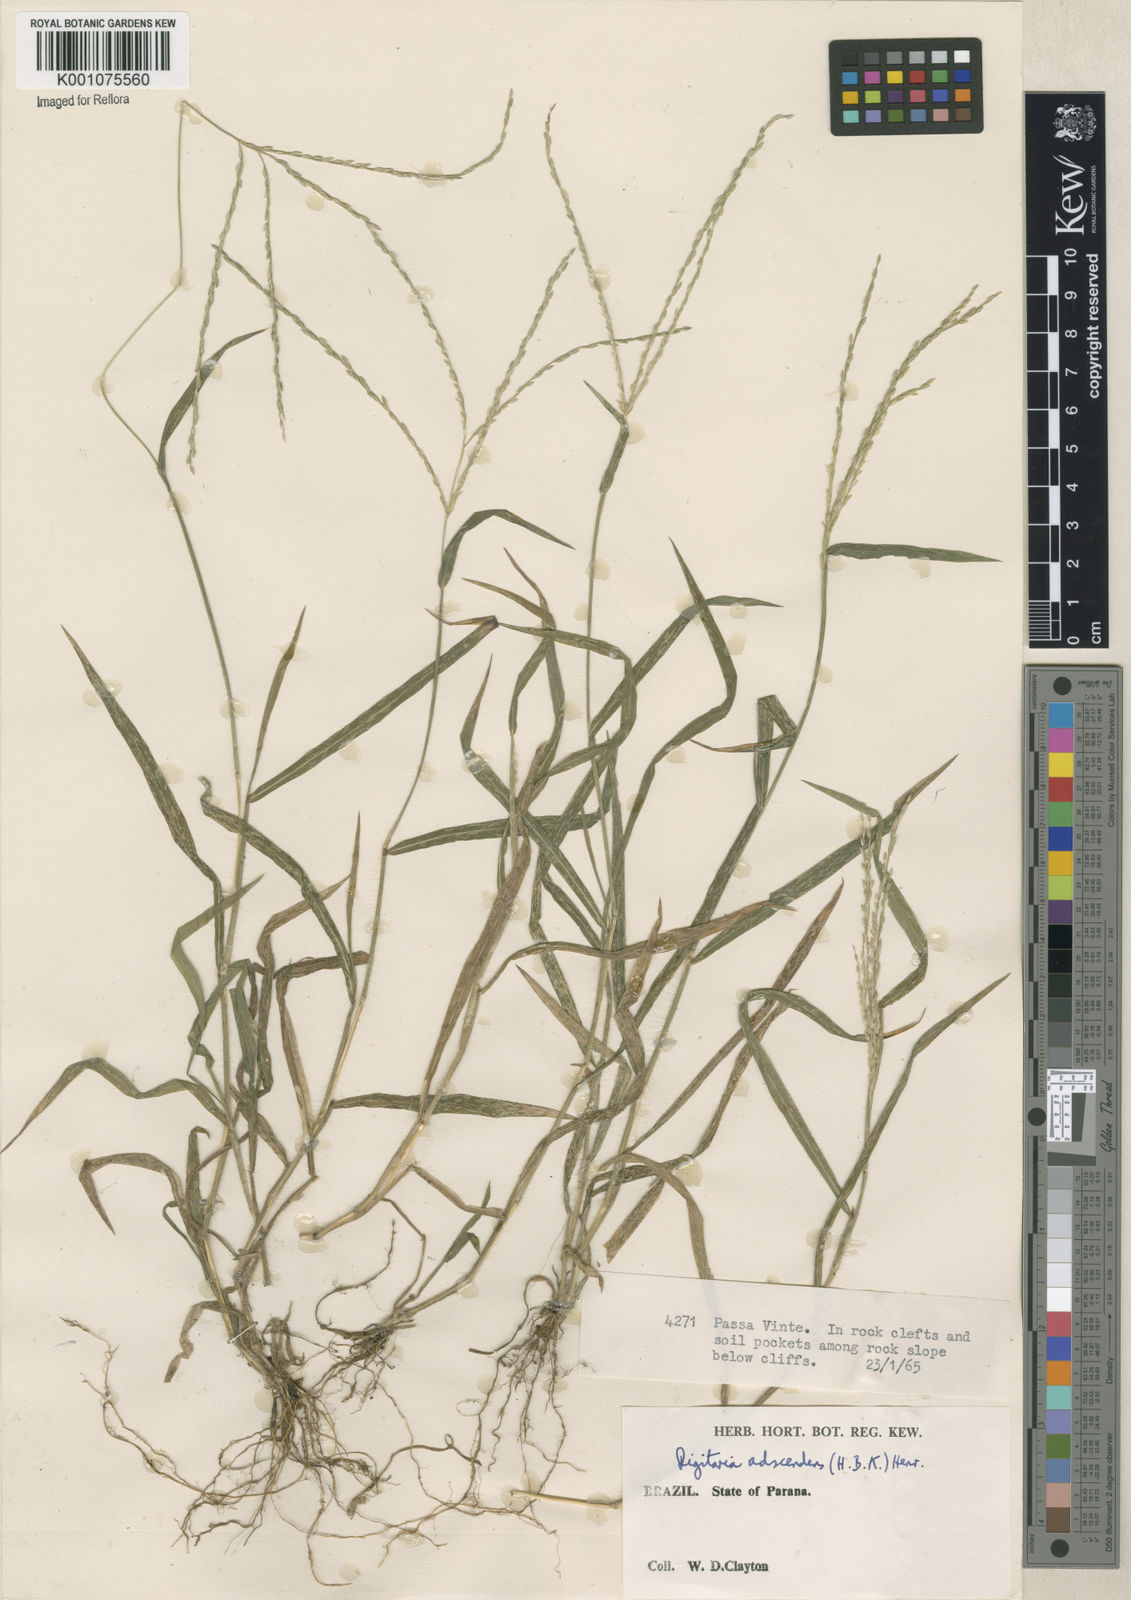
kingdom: Plantae
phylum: Tracheophyta
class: Liliopsida
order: Poales
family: Poaceae
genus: Digitaria
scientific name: Digitaria ciliaris
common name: Tropical finger-grass
